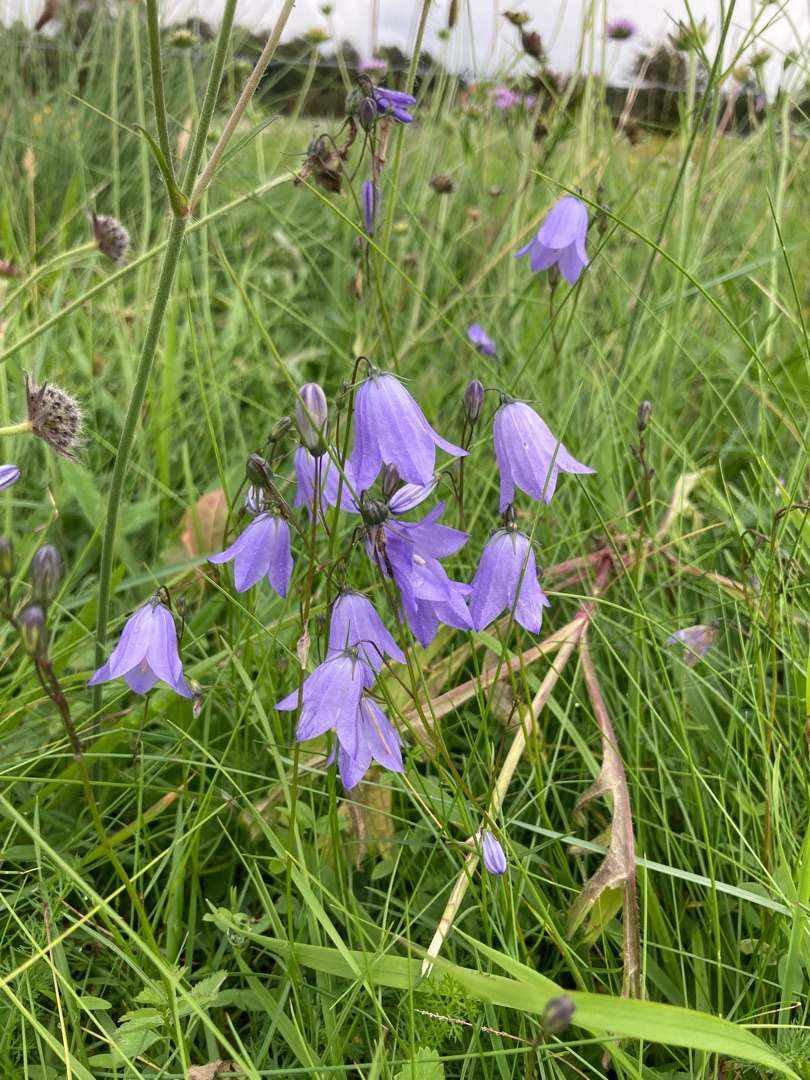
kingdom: Plantae
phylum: Tracheophyta
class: Magnoliopsida
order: Asterales
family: Campanulaceae
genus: Campanula
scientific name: Campanula rotundifolia
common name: Liden klokke
